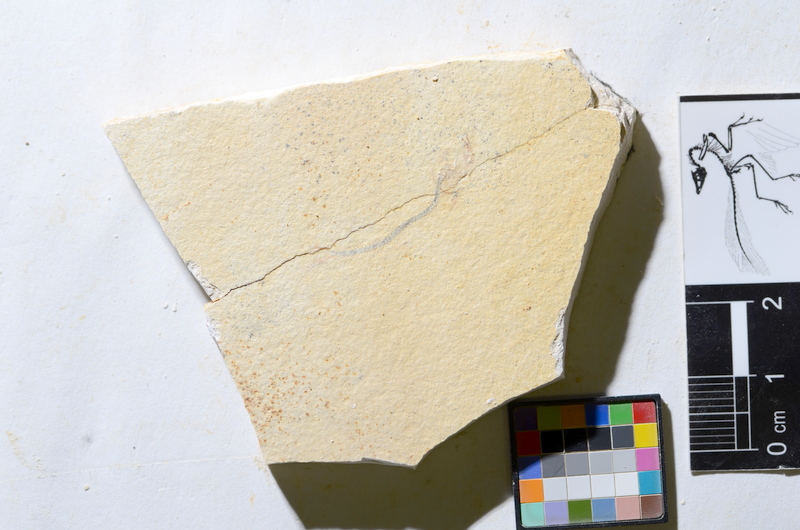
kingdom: Animalia
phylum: Chordata
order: Salmoniformes
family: Orthogonikleithridae
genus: Orthogonikleithrus
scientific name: Orthogonikleithrus hoelli
